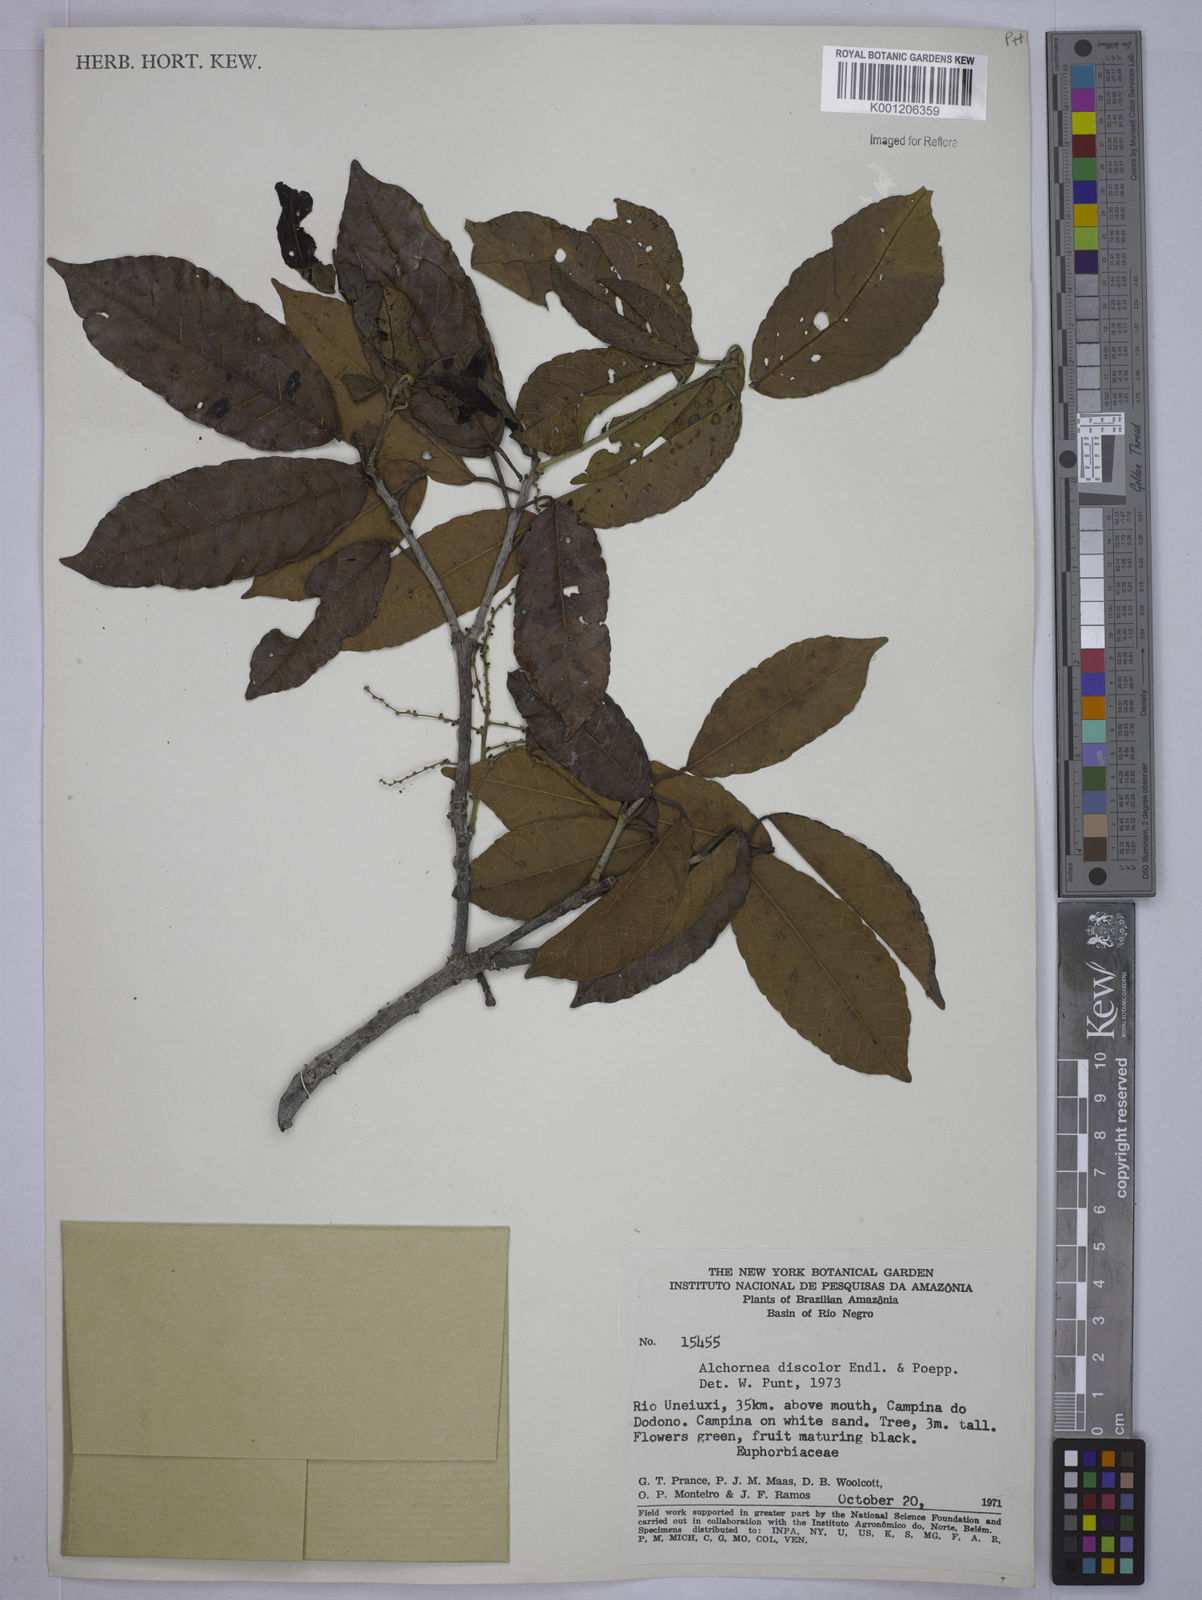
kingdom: Plantae
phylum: Tracheophyta
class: Magnoliopsida
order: Malpighiales
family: Euphorbiaceae
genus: Alchornea
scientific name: Alchornea discolor
